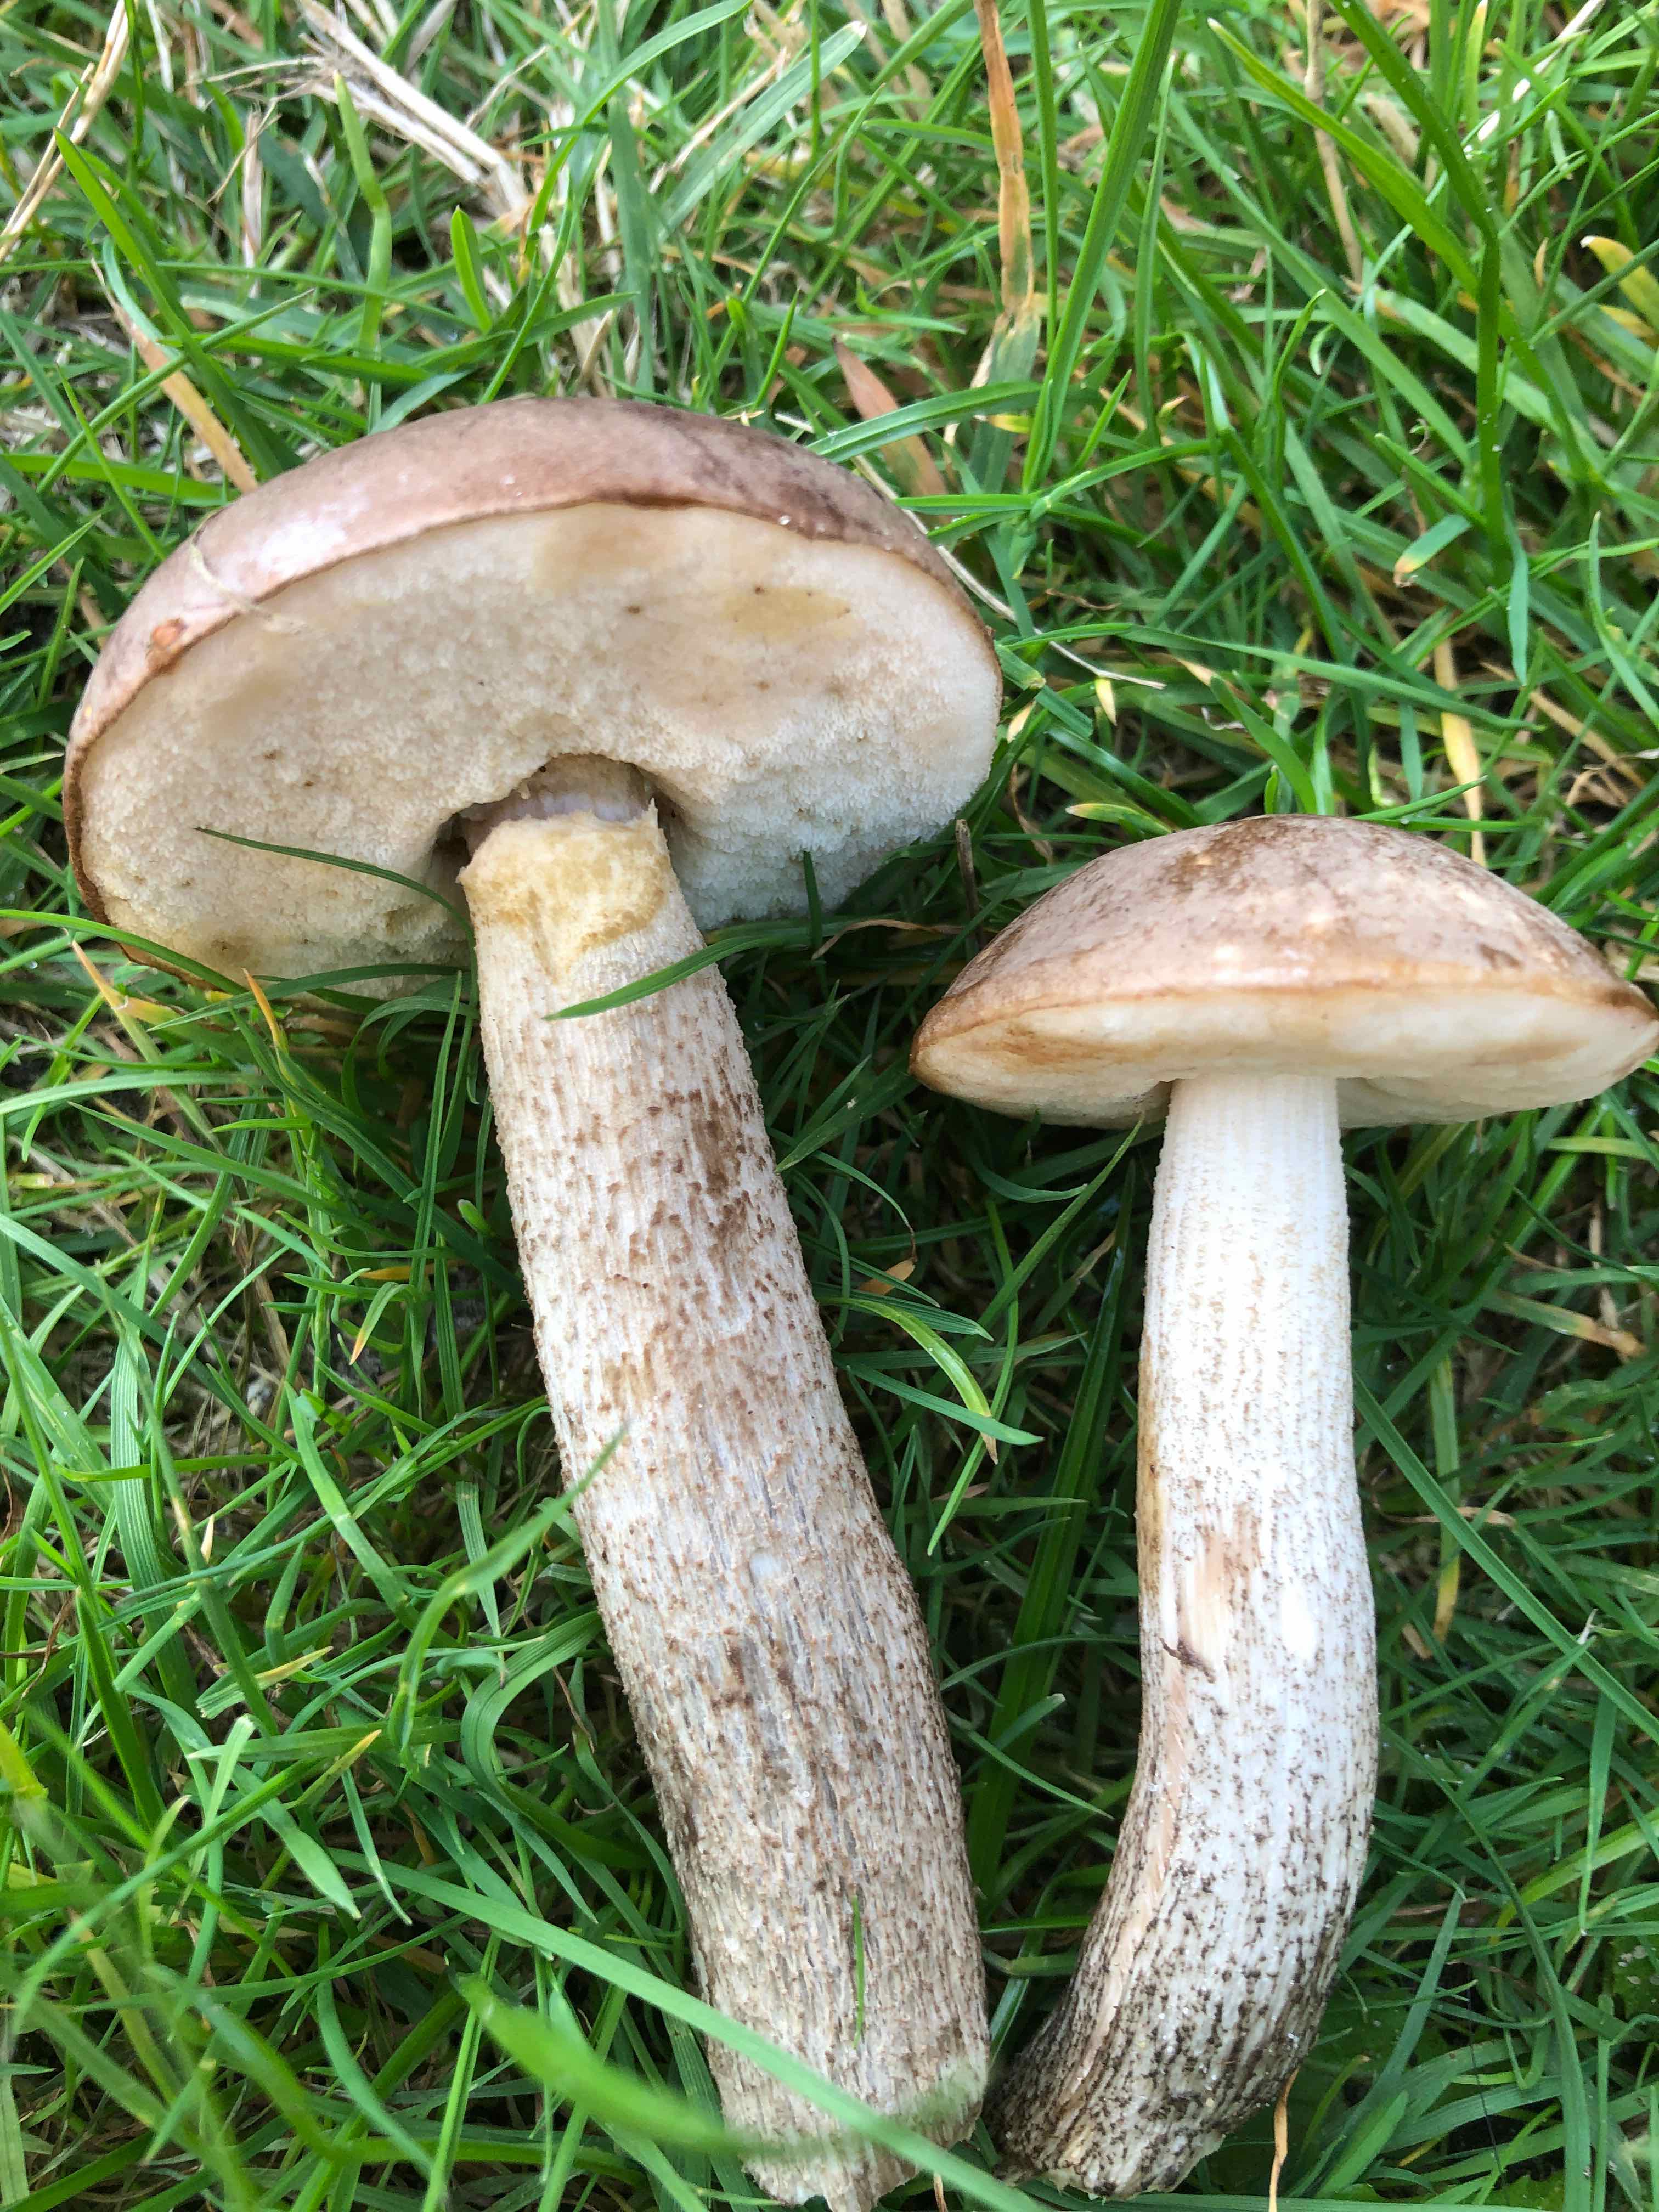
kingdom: Fungi
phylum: Basidiomycota
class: Agaricomycetes
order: Boletales
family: Boletaceae
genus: Leccinum
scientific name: Leccinum
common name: skælrørhat
